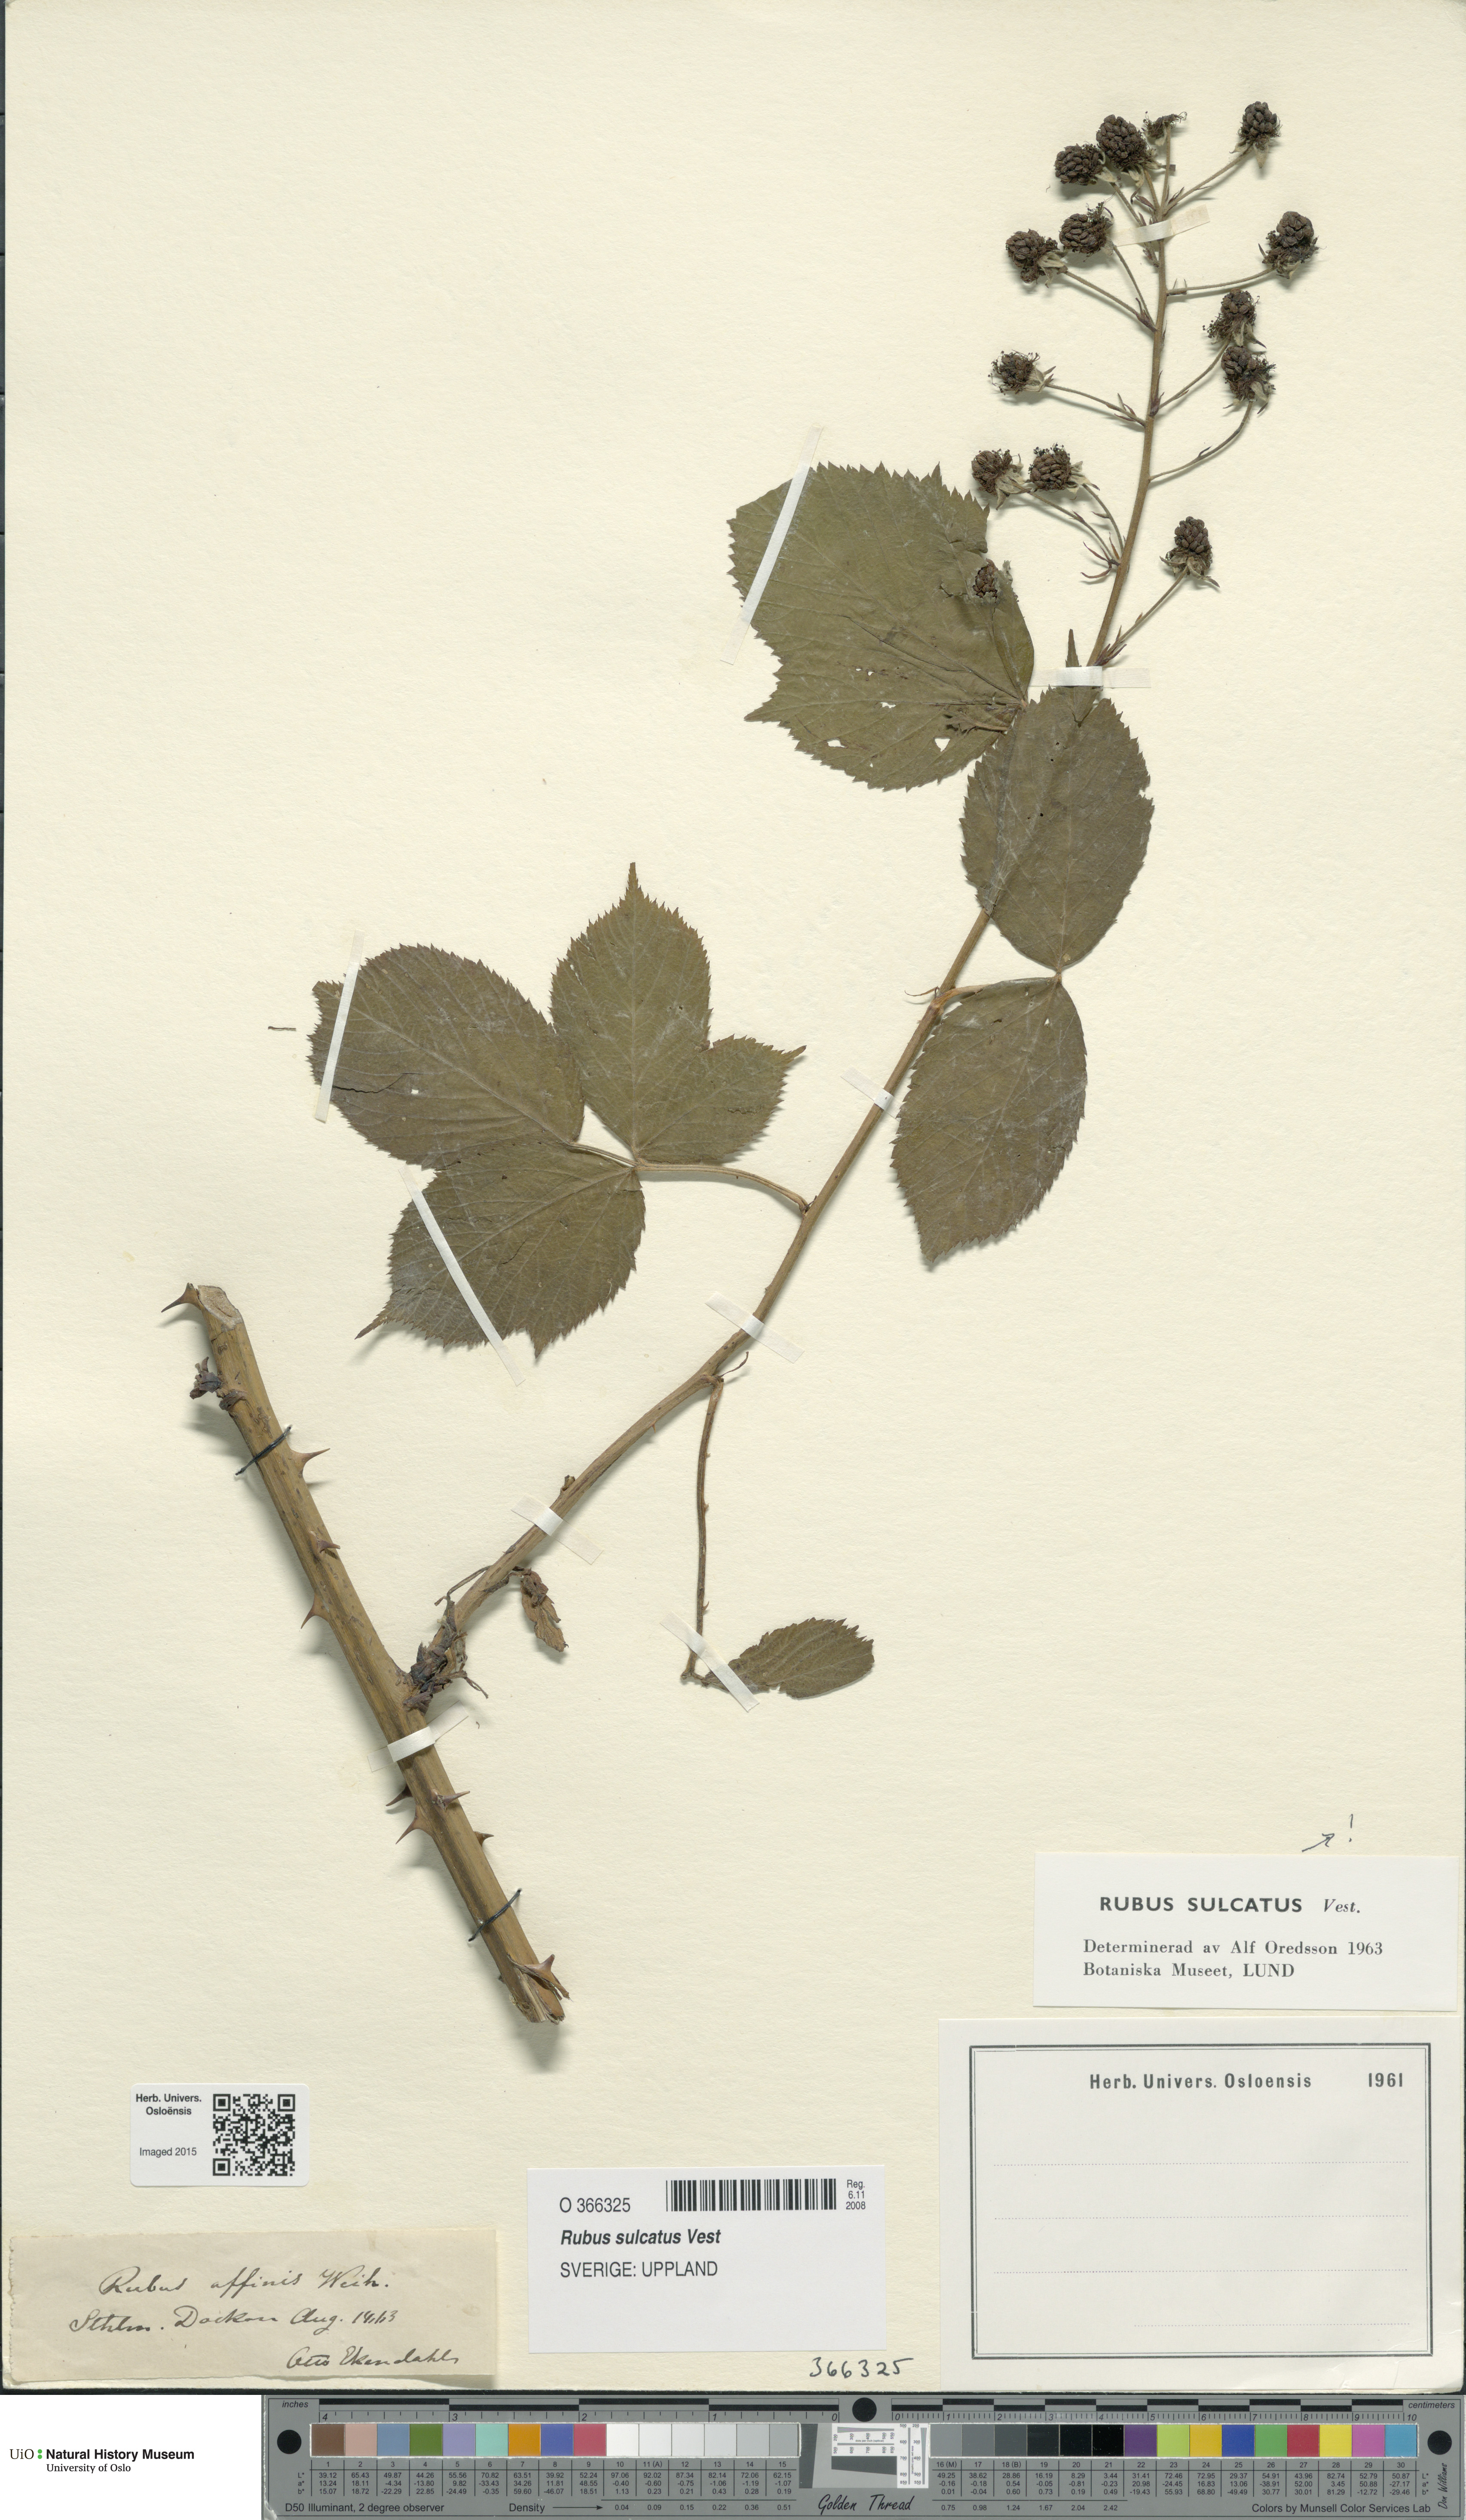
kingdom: Plantae
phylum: Tracheophyta
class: Magnoliopsida
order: Rosales
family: Rosaceae
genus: Rubus
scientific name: Rubus sulcatus
